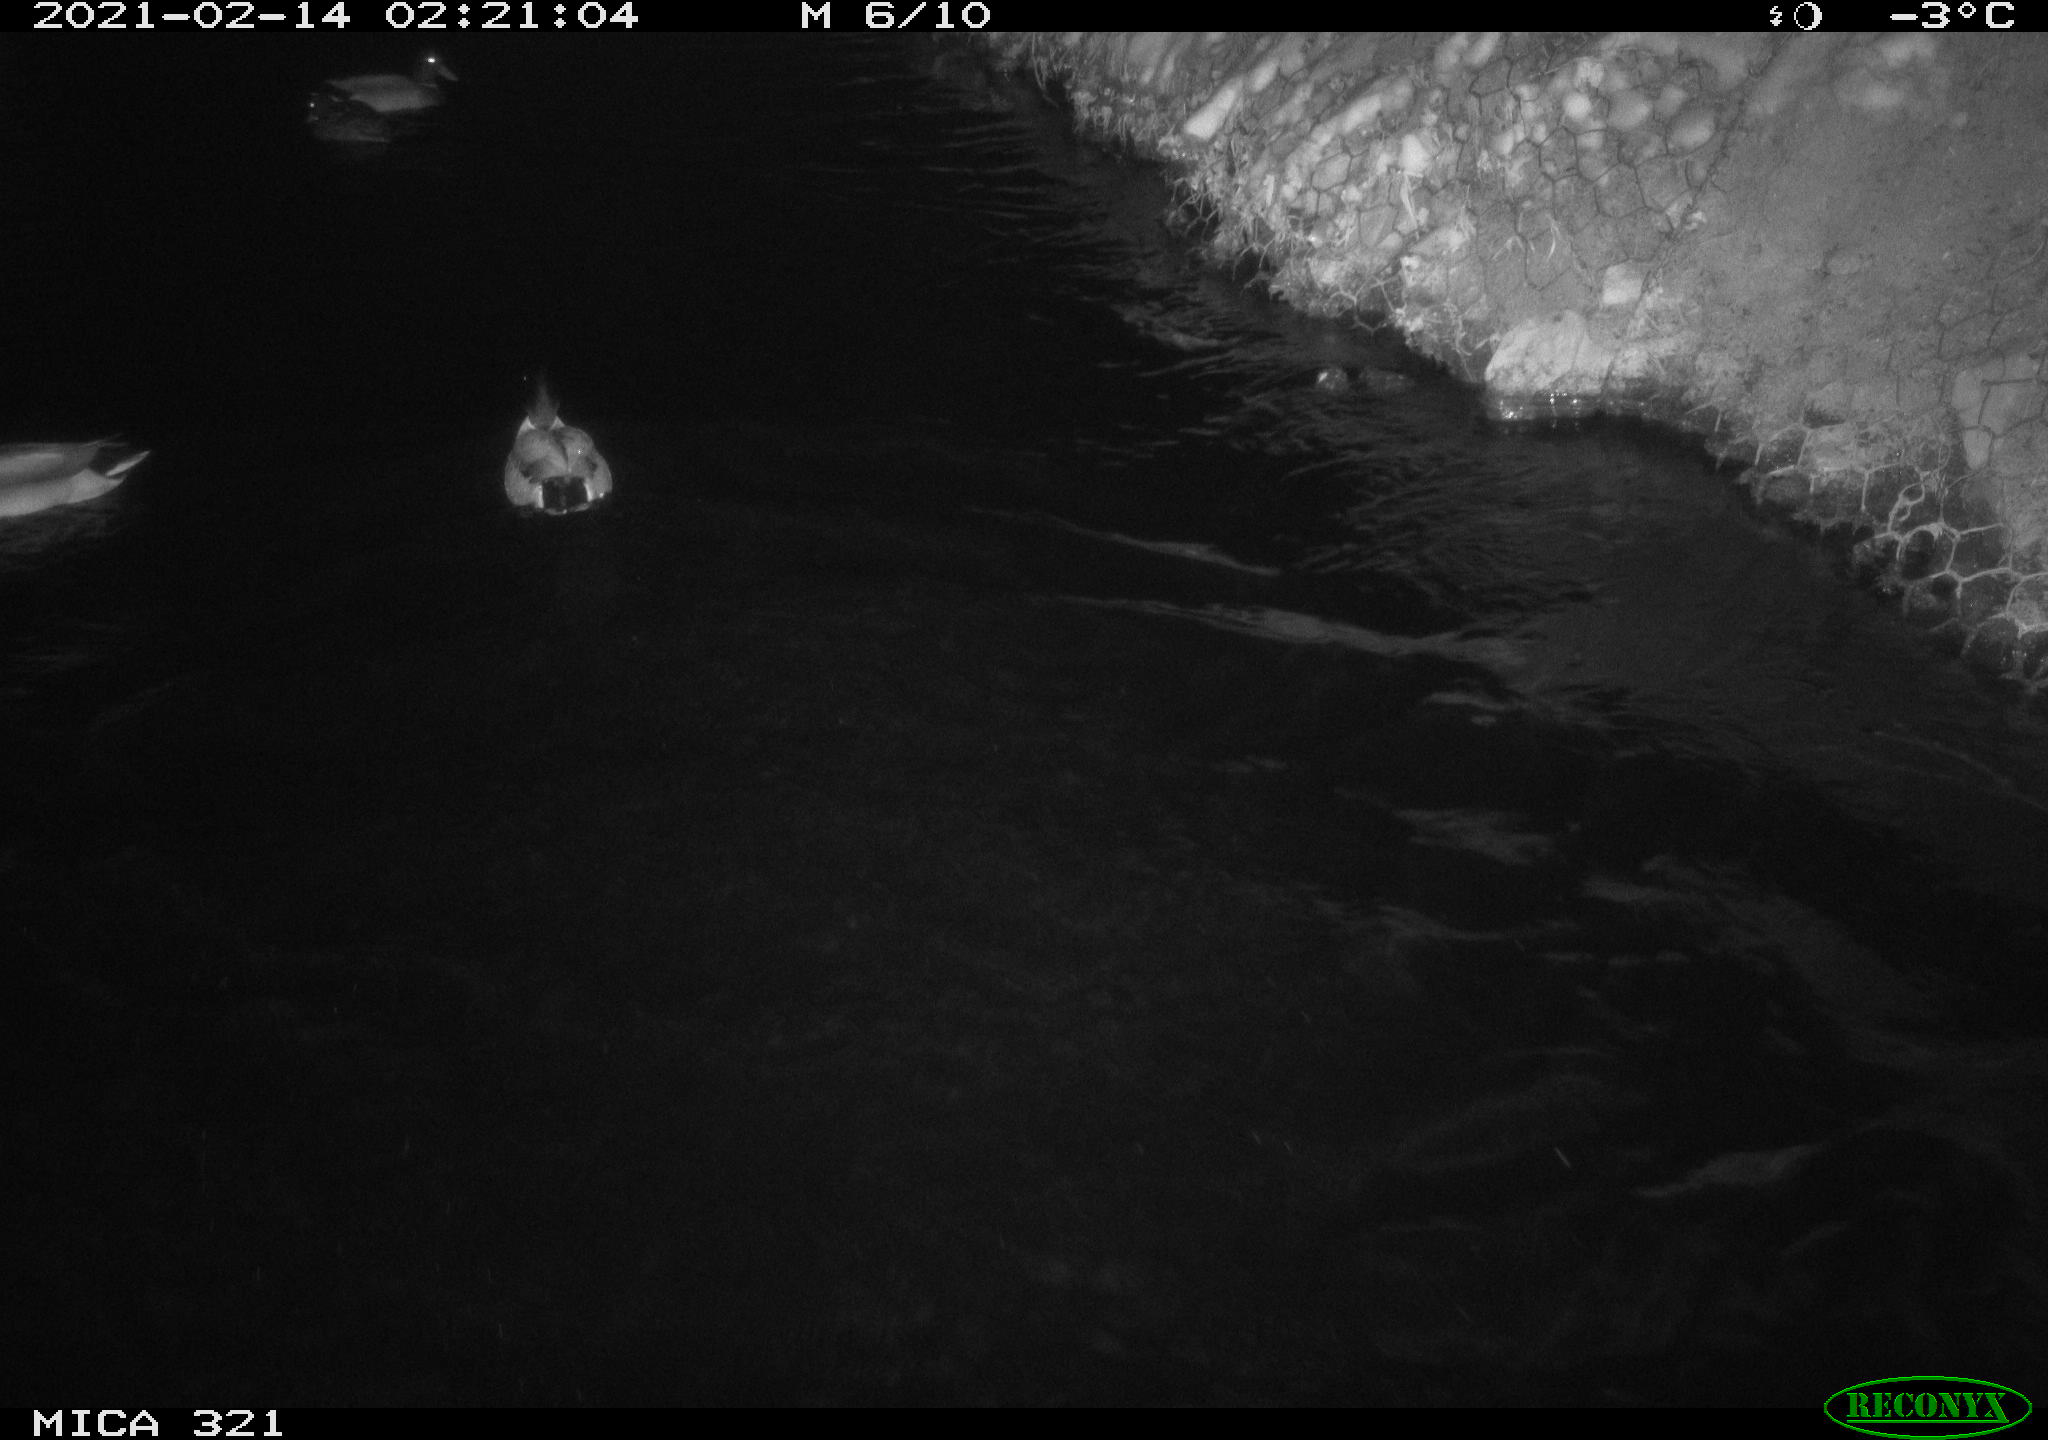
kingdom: Animalia
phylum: Chordata
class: Aves
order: Anseriformes
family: Anatidae
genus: Anas
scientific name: Anas platyrhynchos
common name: Mallard
